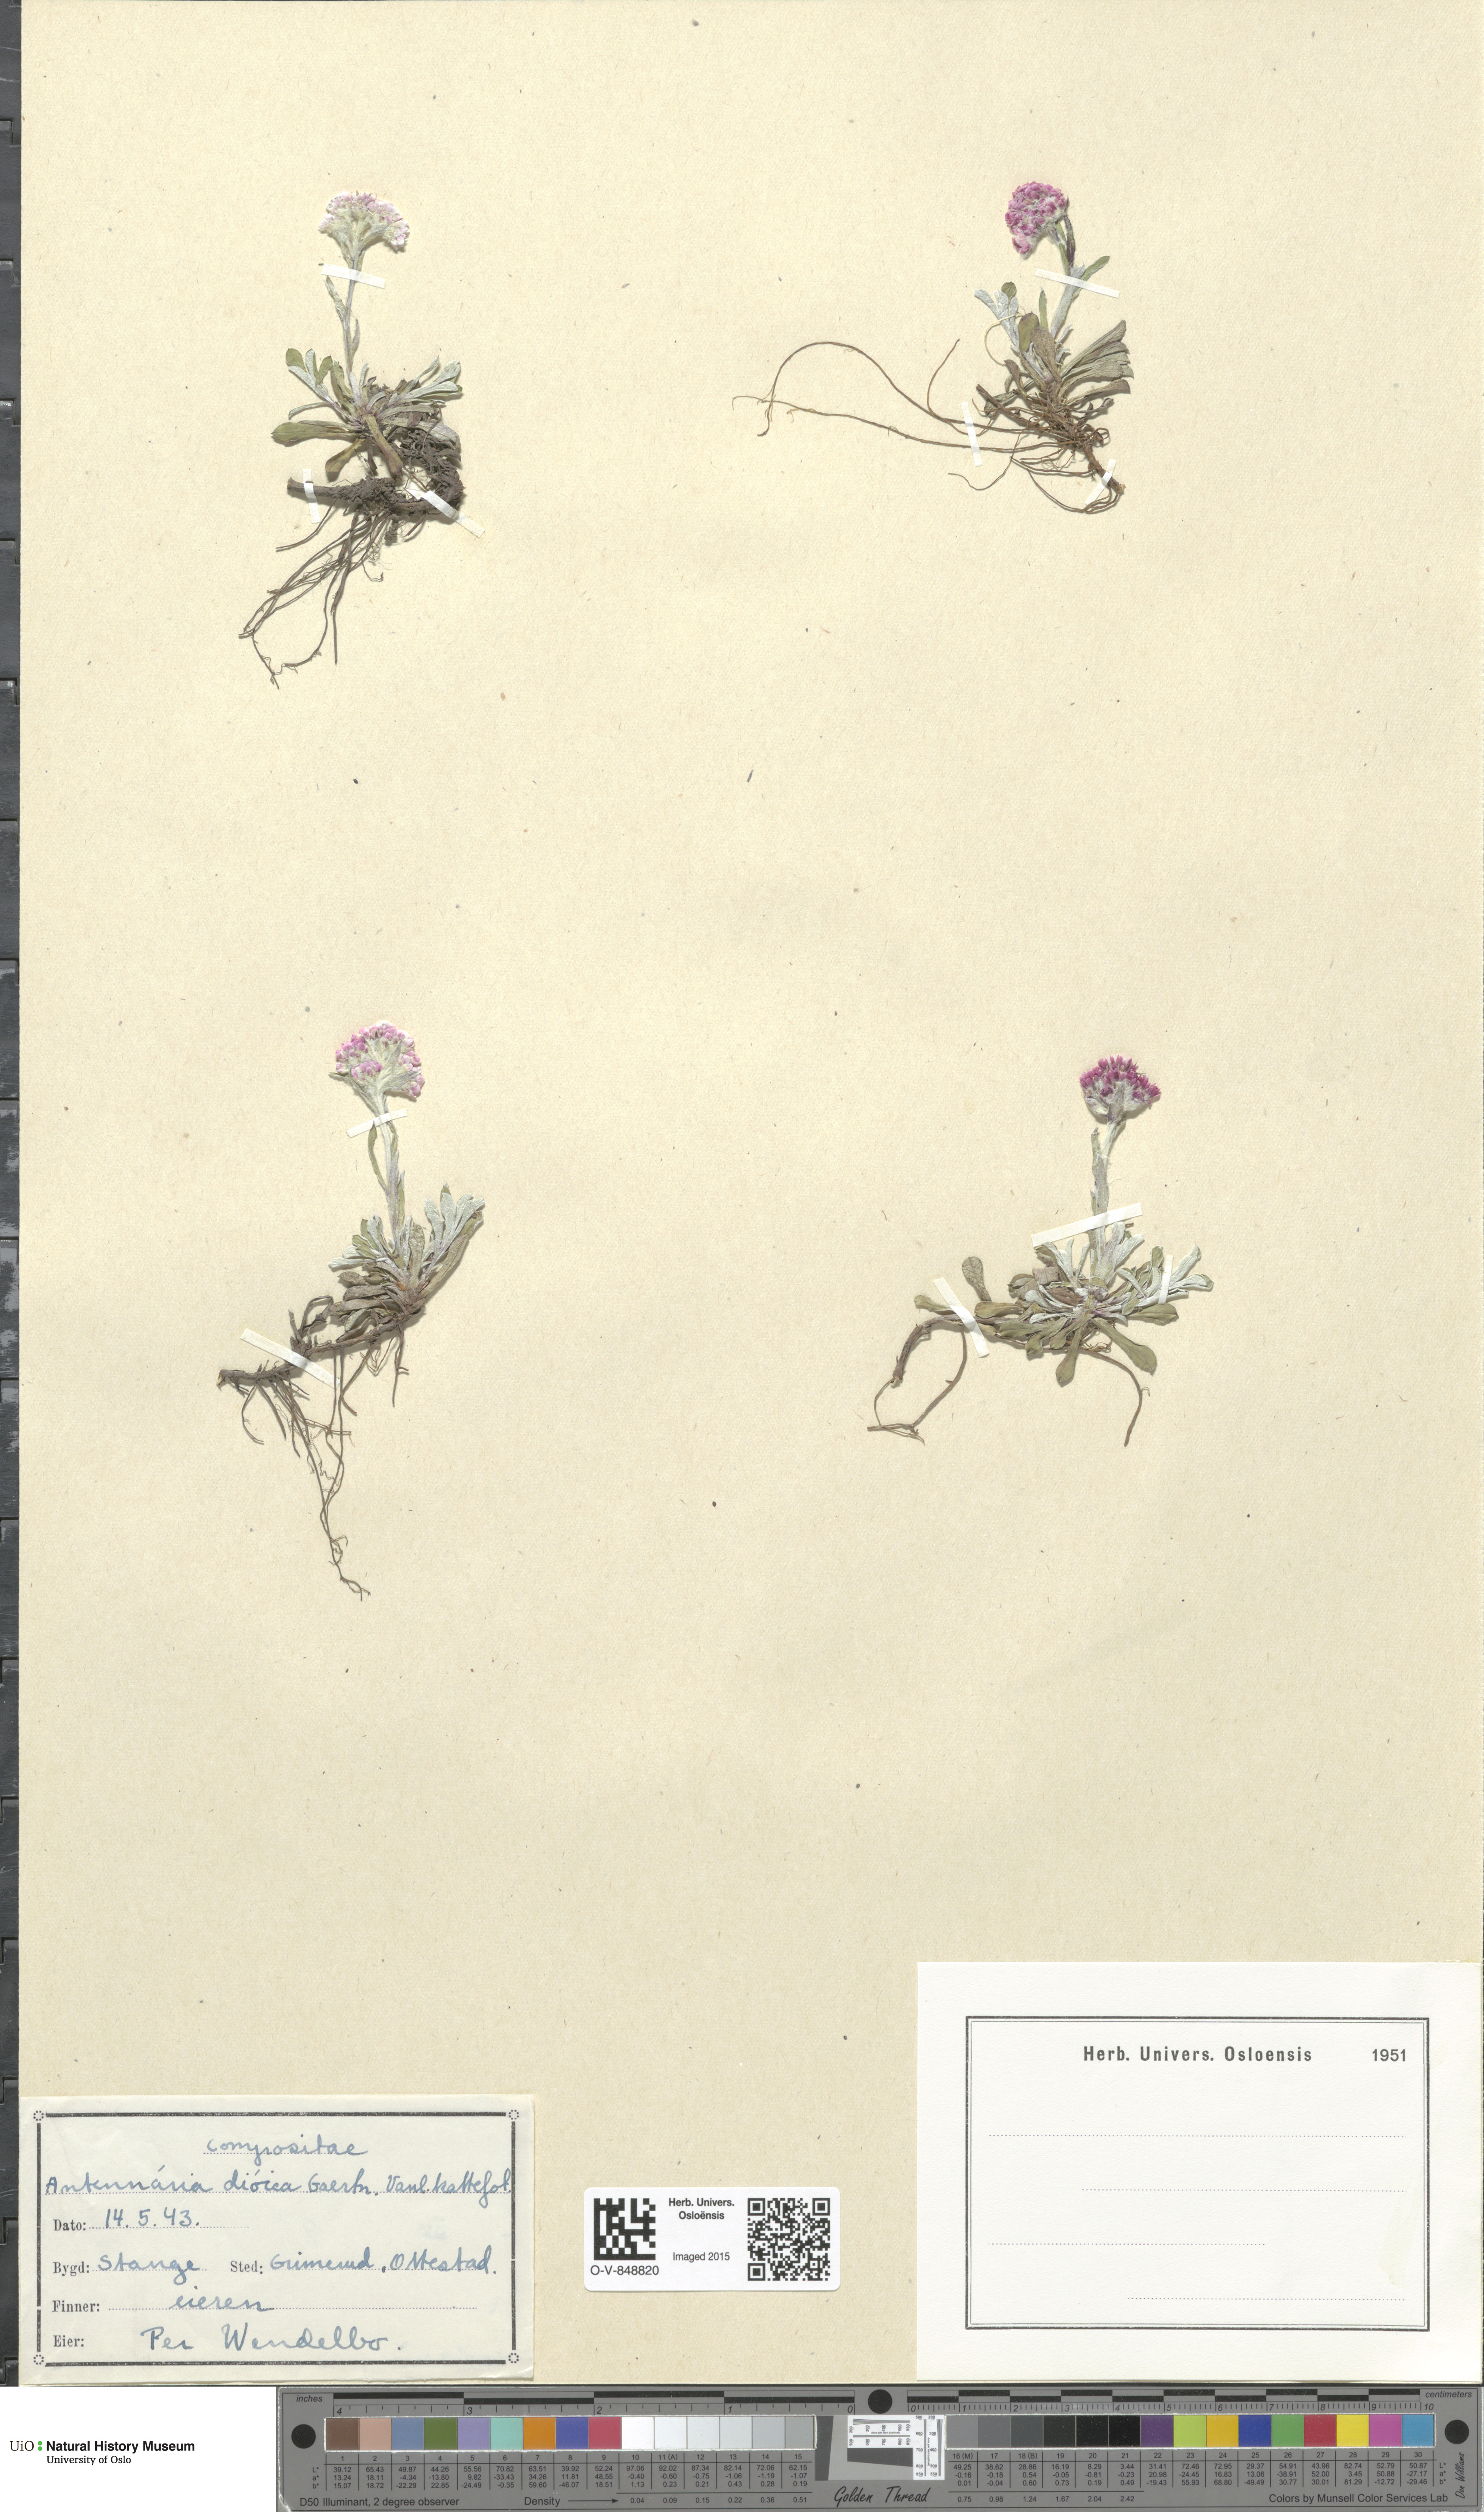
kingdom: Plantae
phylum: Tracheophyta
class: Magnoliopsida
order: Asterales
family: Asteraceae
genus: Antennaria
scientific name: Antennaria dioica
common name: Mountain everlasting
